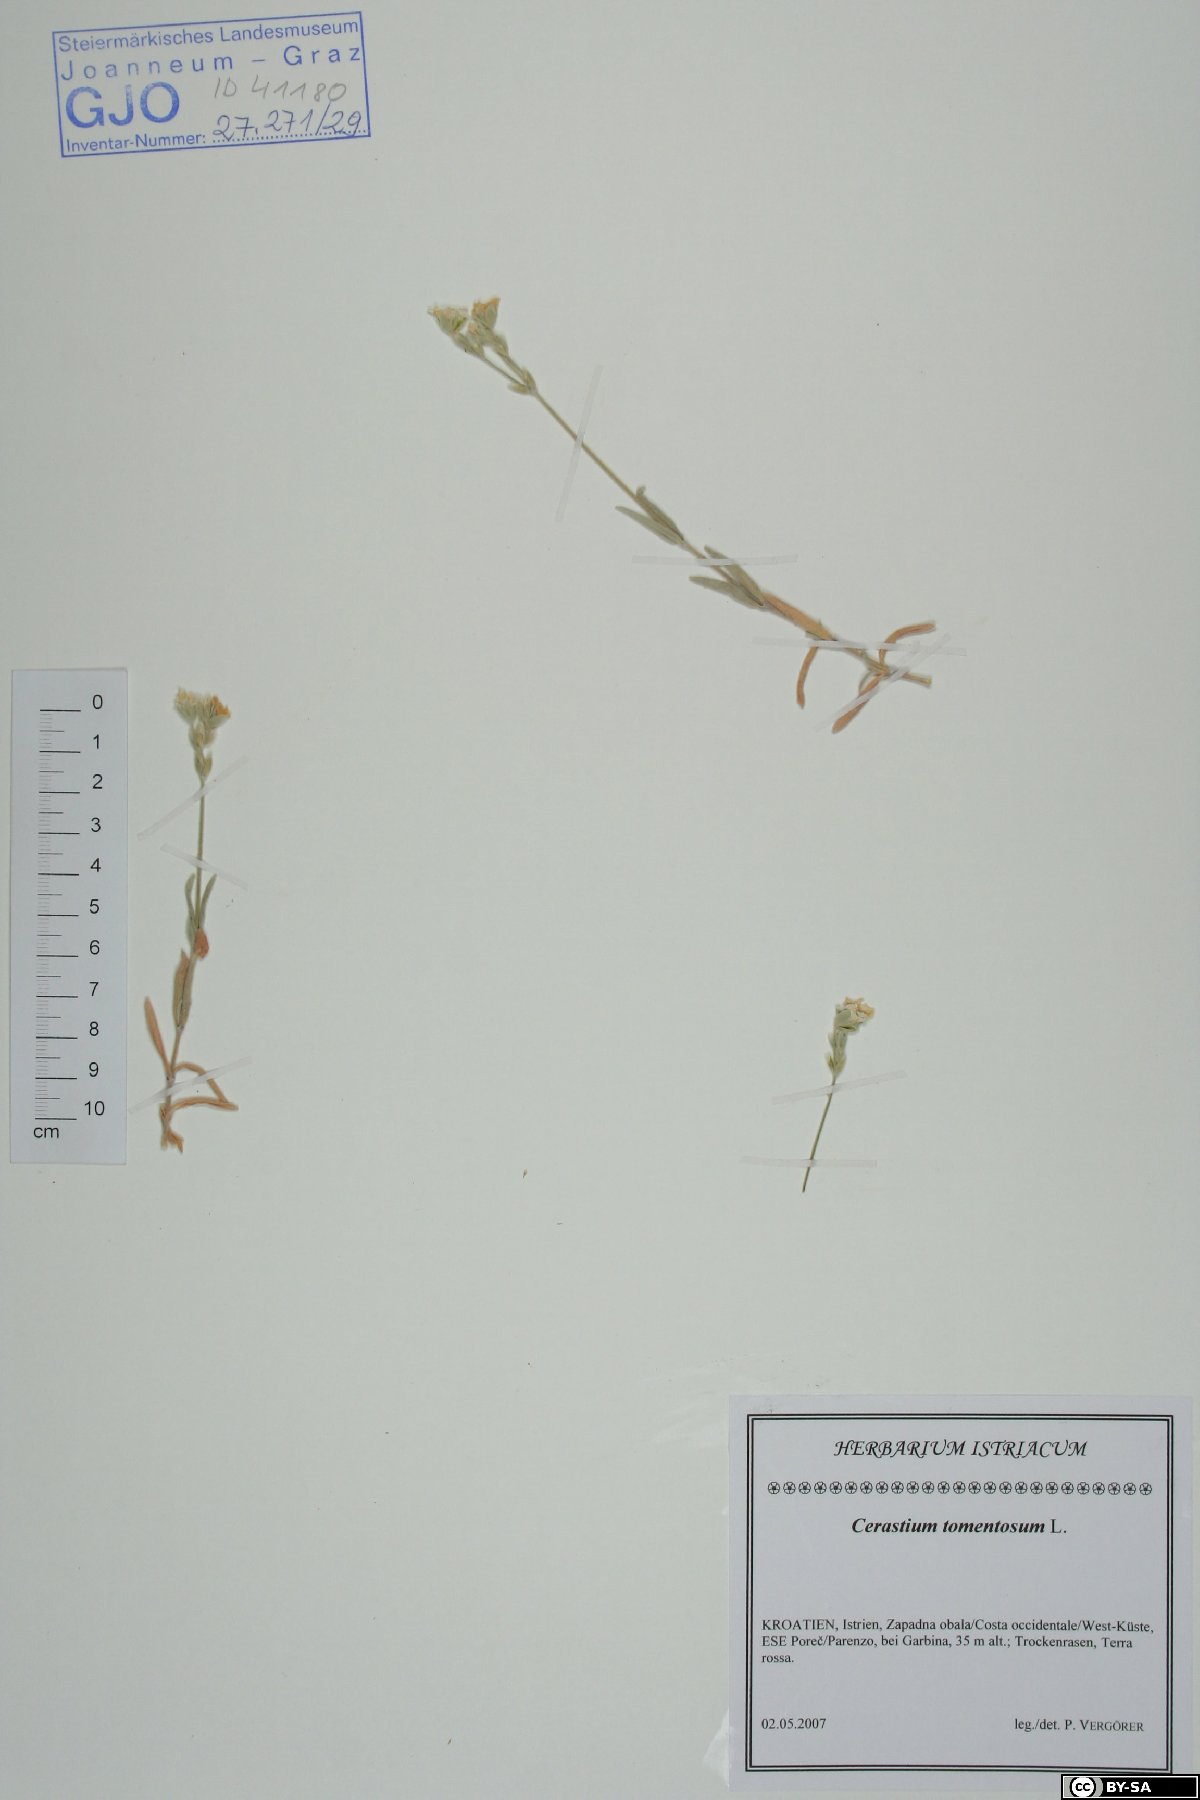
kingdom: Plantae
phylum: Tracheophyta
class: Magnoliopsida
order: Caryophyllales
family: Caryophyllaceae
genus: Cerastium
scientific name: Cerastium tomentosum
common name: Snow-in-summer
